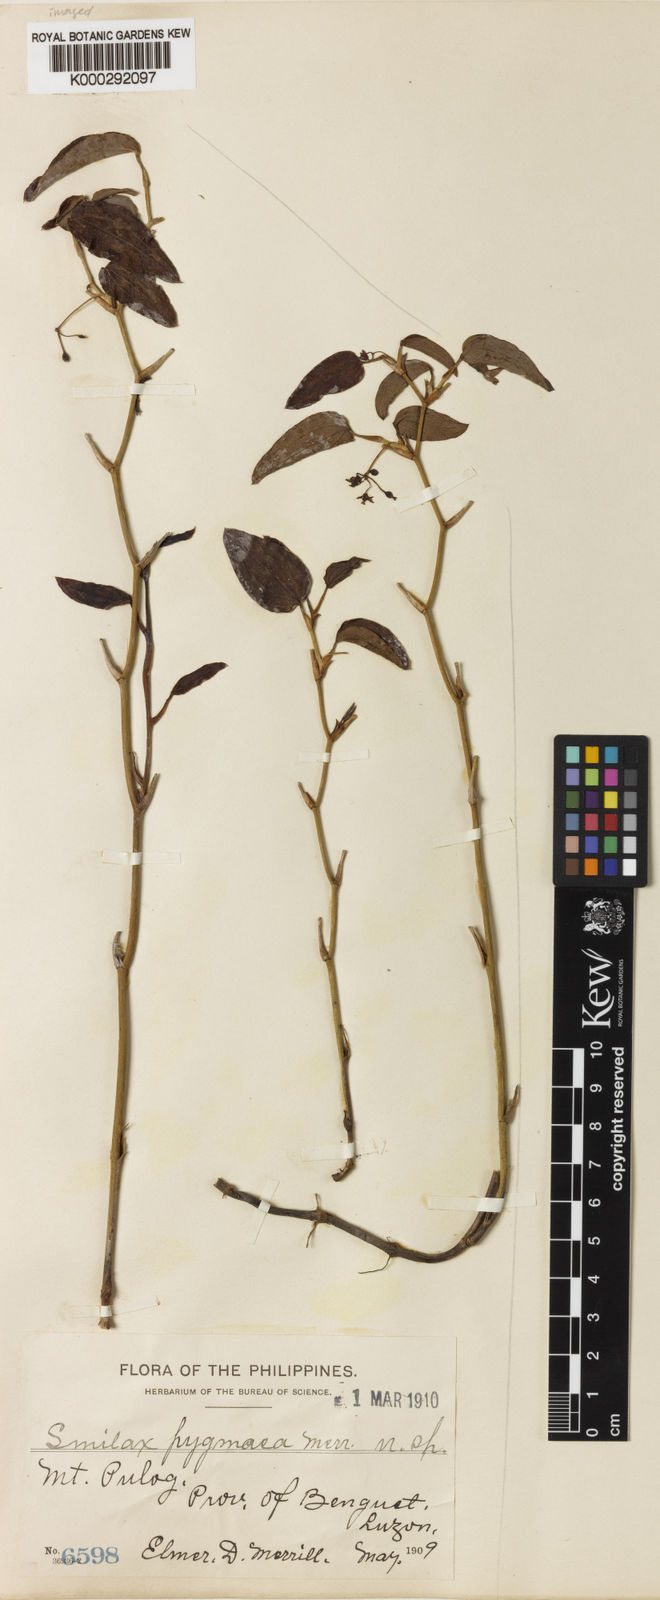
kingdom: Plantae
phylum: Tracheophyta
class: Liliopsida
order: Liliales
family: Smilacaceae
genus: Smilax
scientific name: Smilax pygmaea
